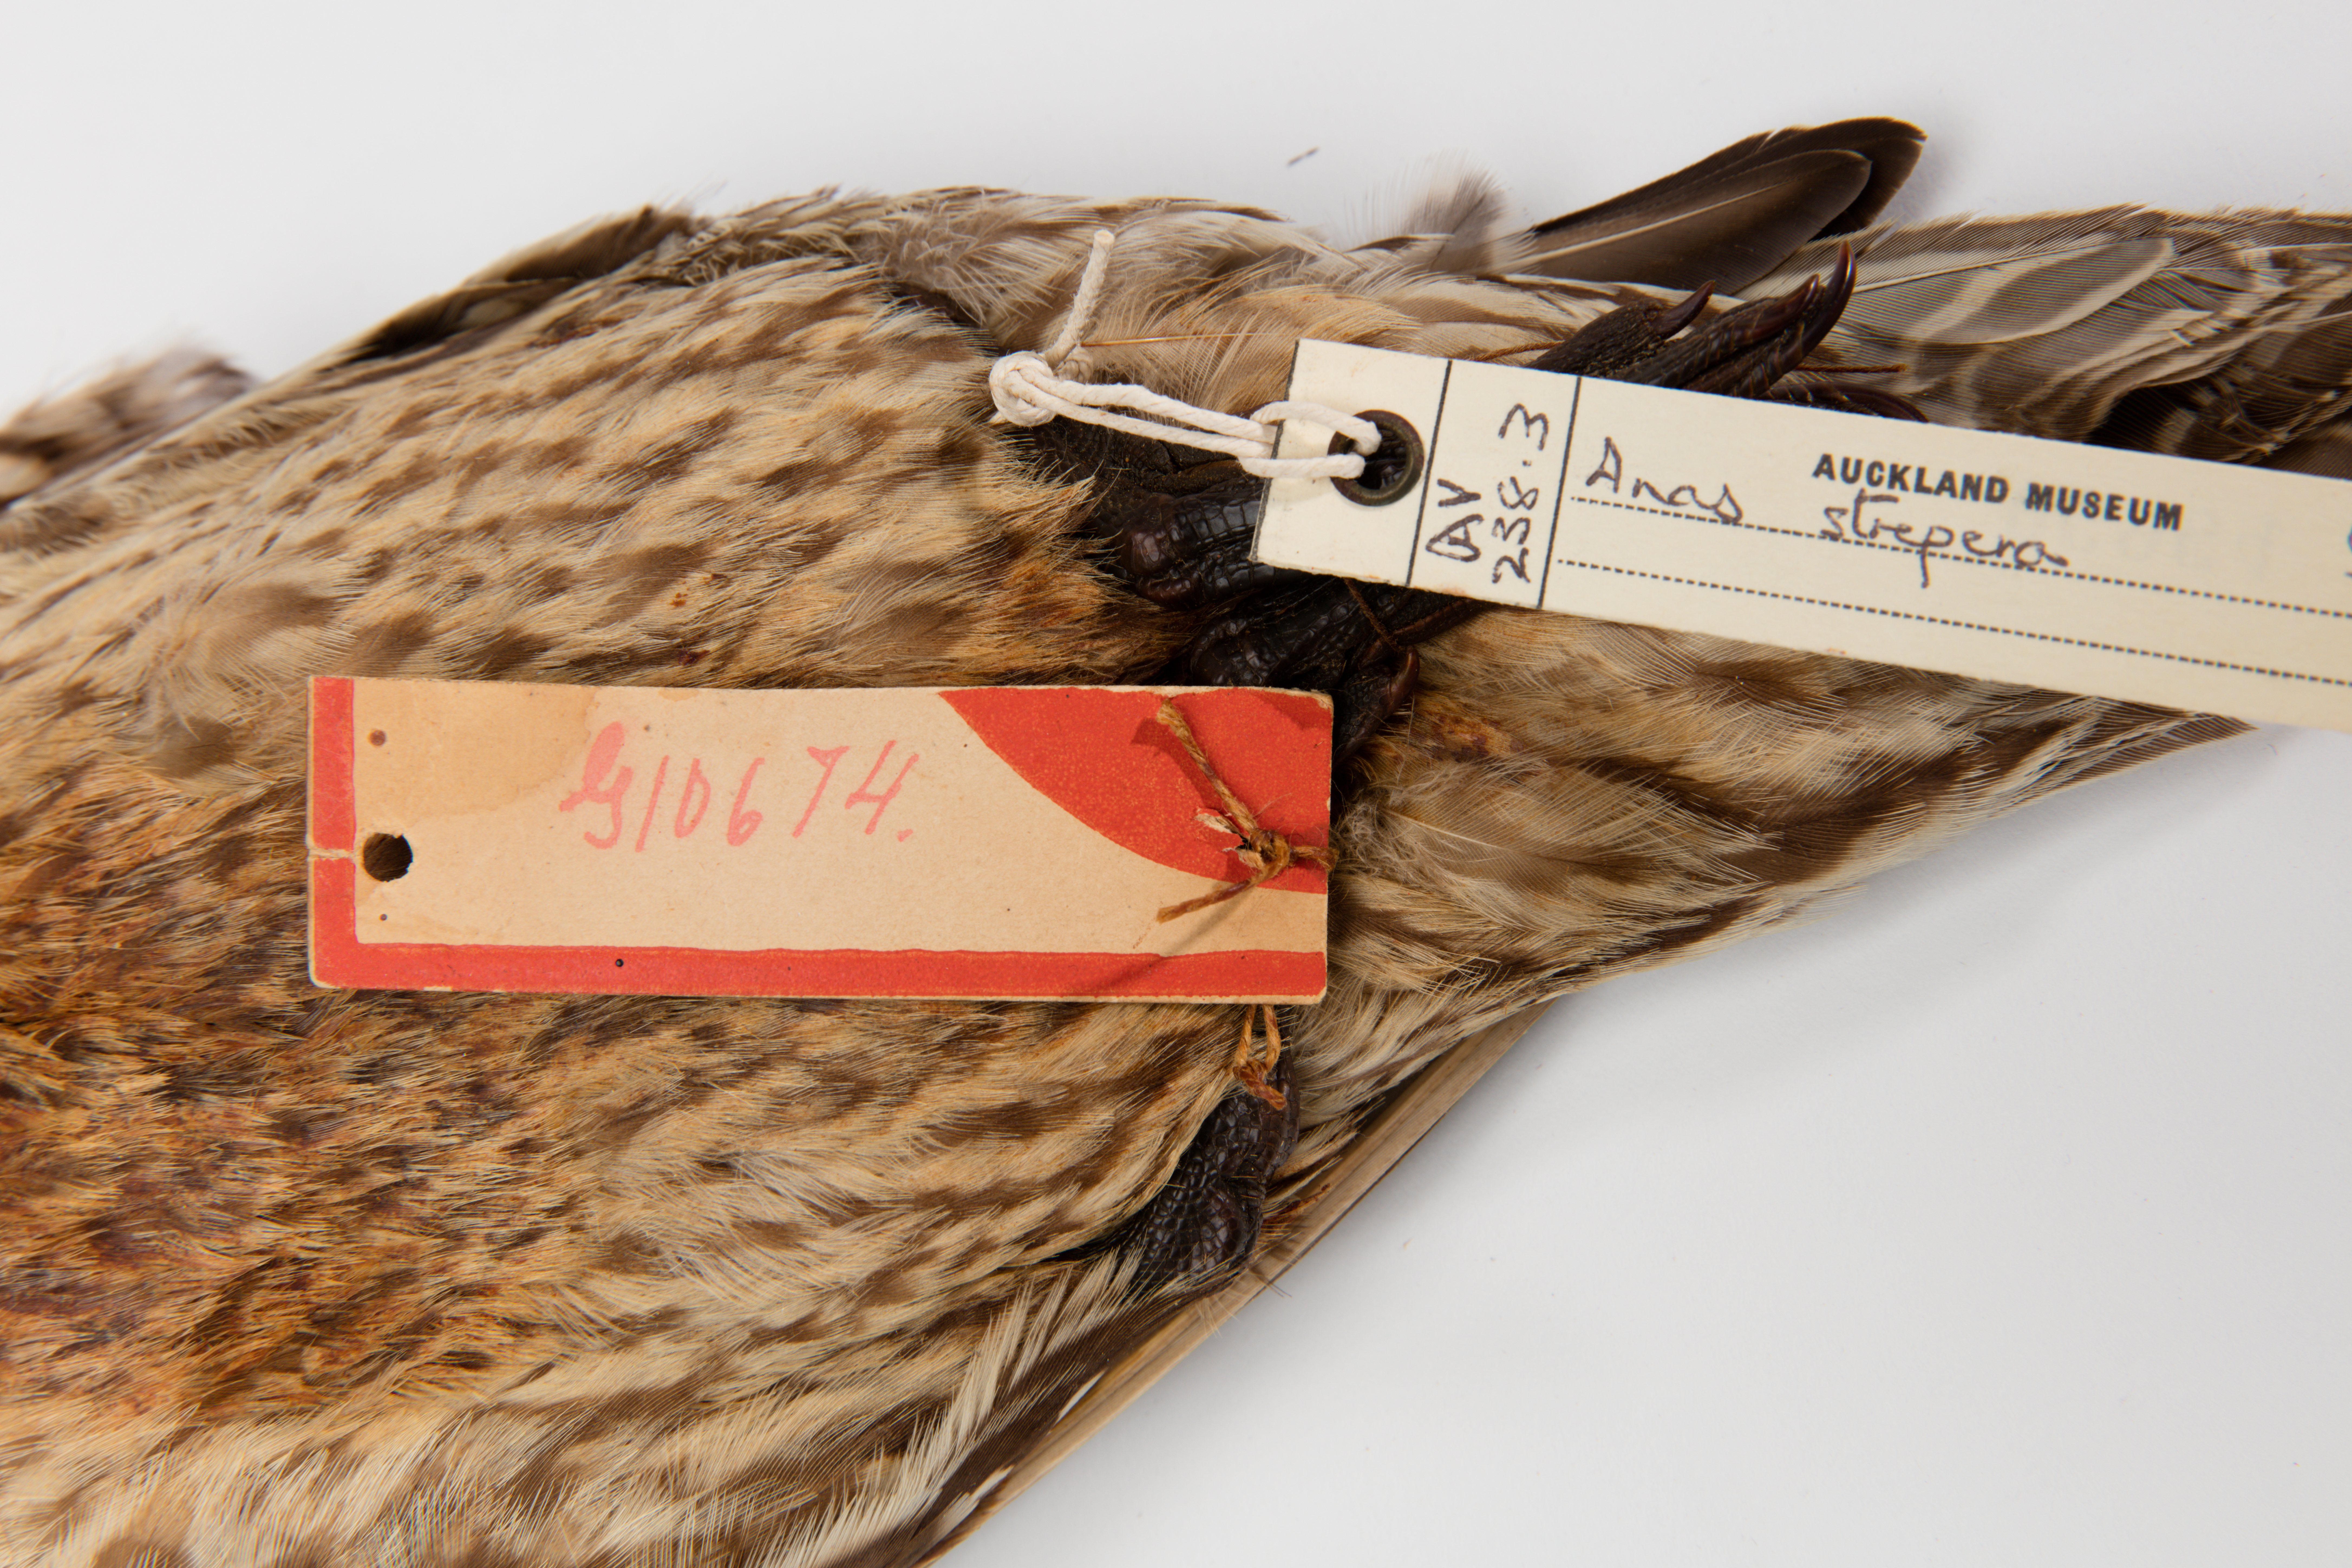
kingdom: Animalia
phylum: Chordata
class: Aves
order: Anseriformes
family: Anatidae
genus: Mareca
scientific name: Mareca strepera
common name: Gadwall
